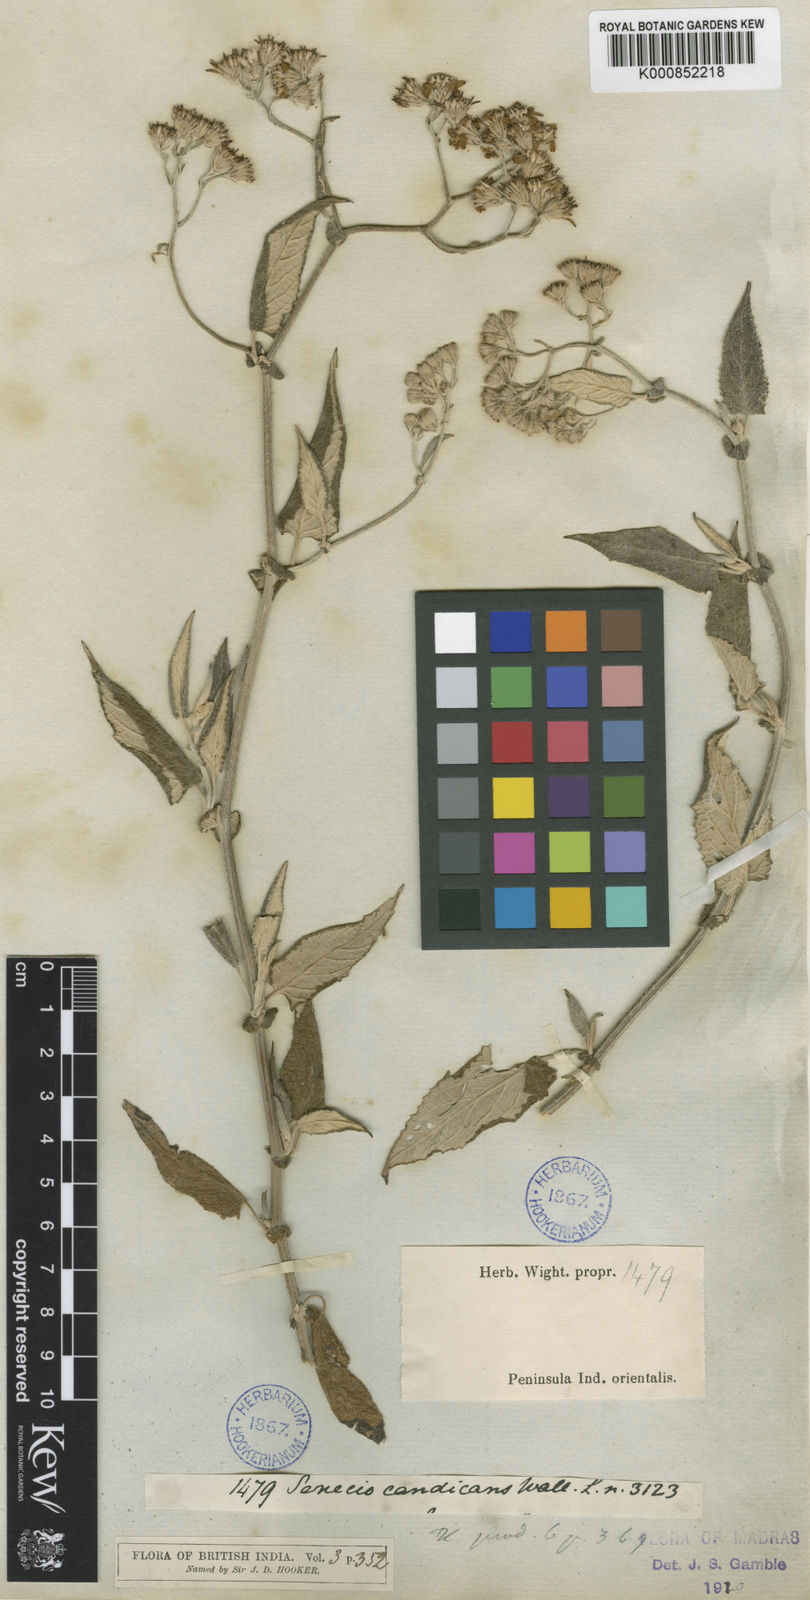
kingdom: Plantae
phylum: Tracheophyta
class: Magnoliopsida
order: Asterales
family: Asteraceae
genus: Senecio
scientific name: Senecio candicans
